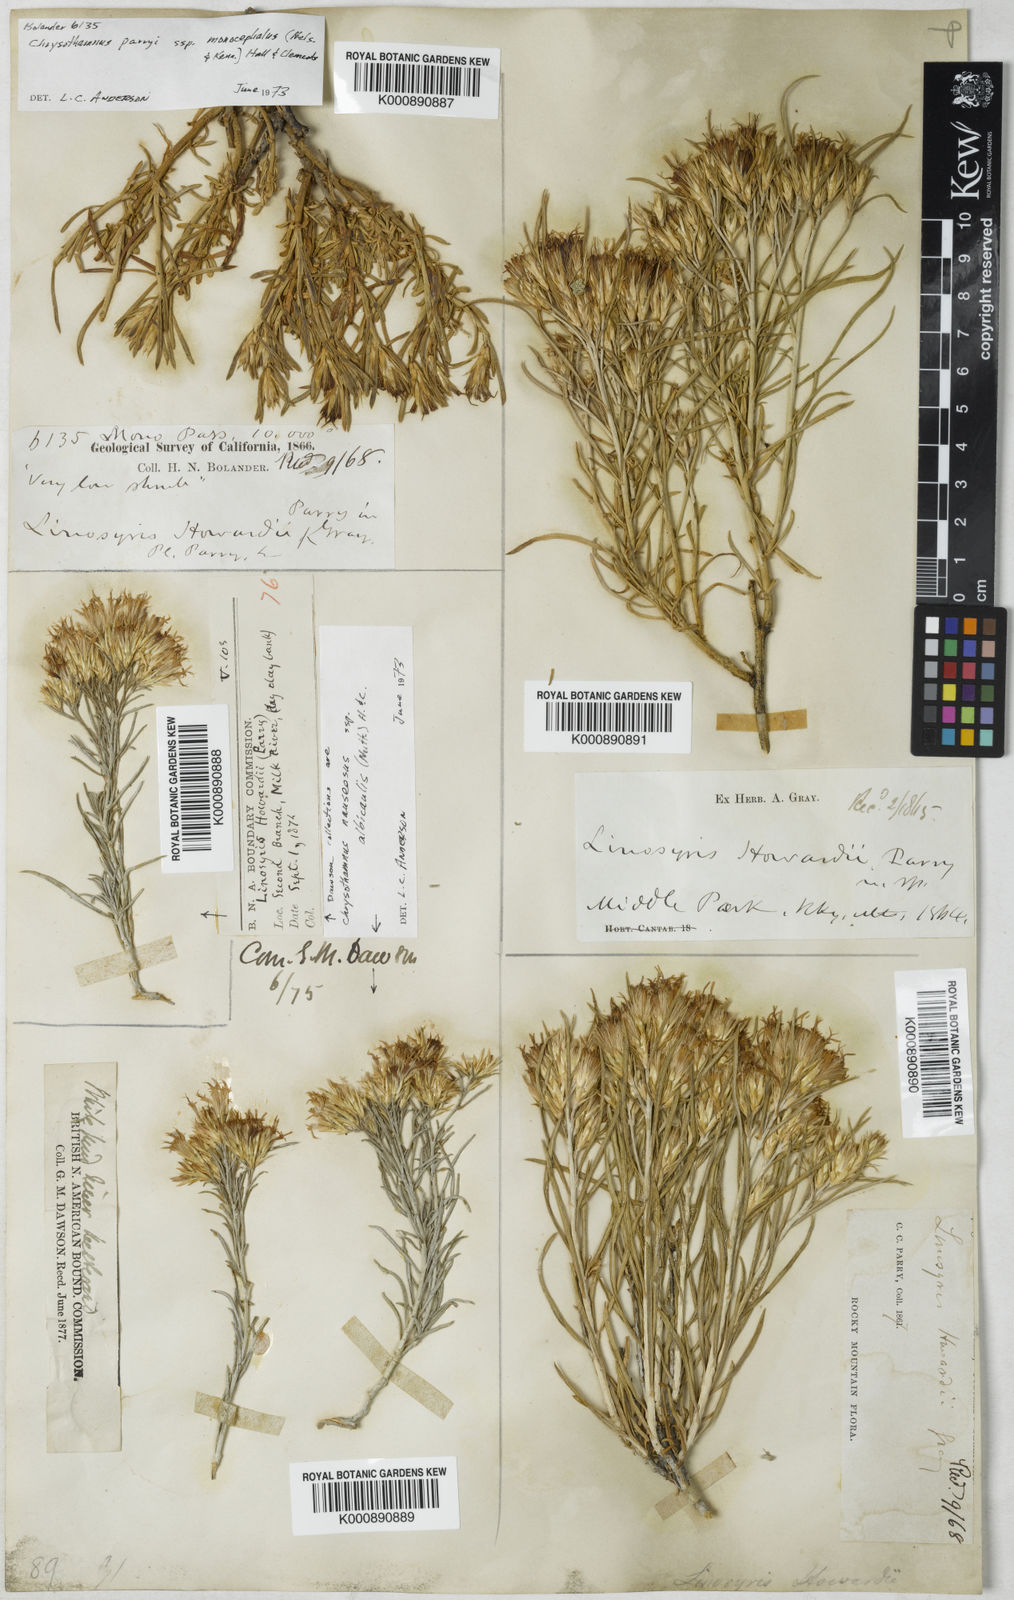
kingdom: Plantae
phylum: Tracheophyta
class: Magnoliopsida
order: Asterales
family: Asteraceae
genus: Ericameria
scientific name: Ericameria parryi
